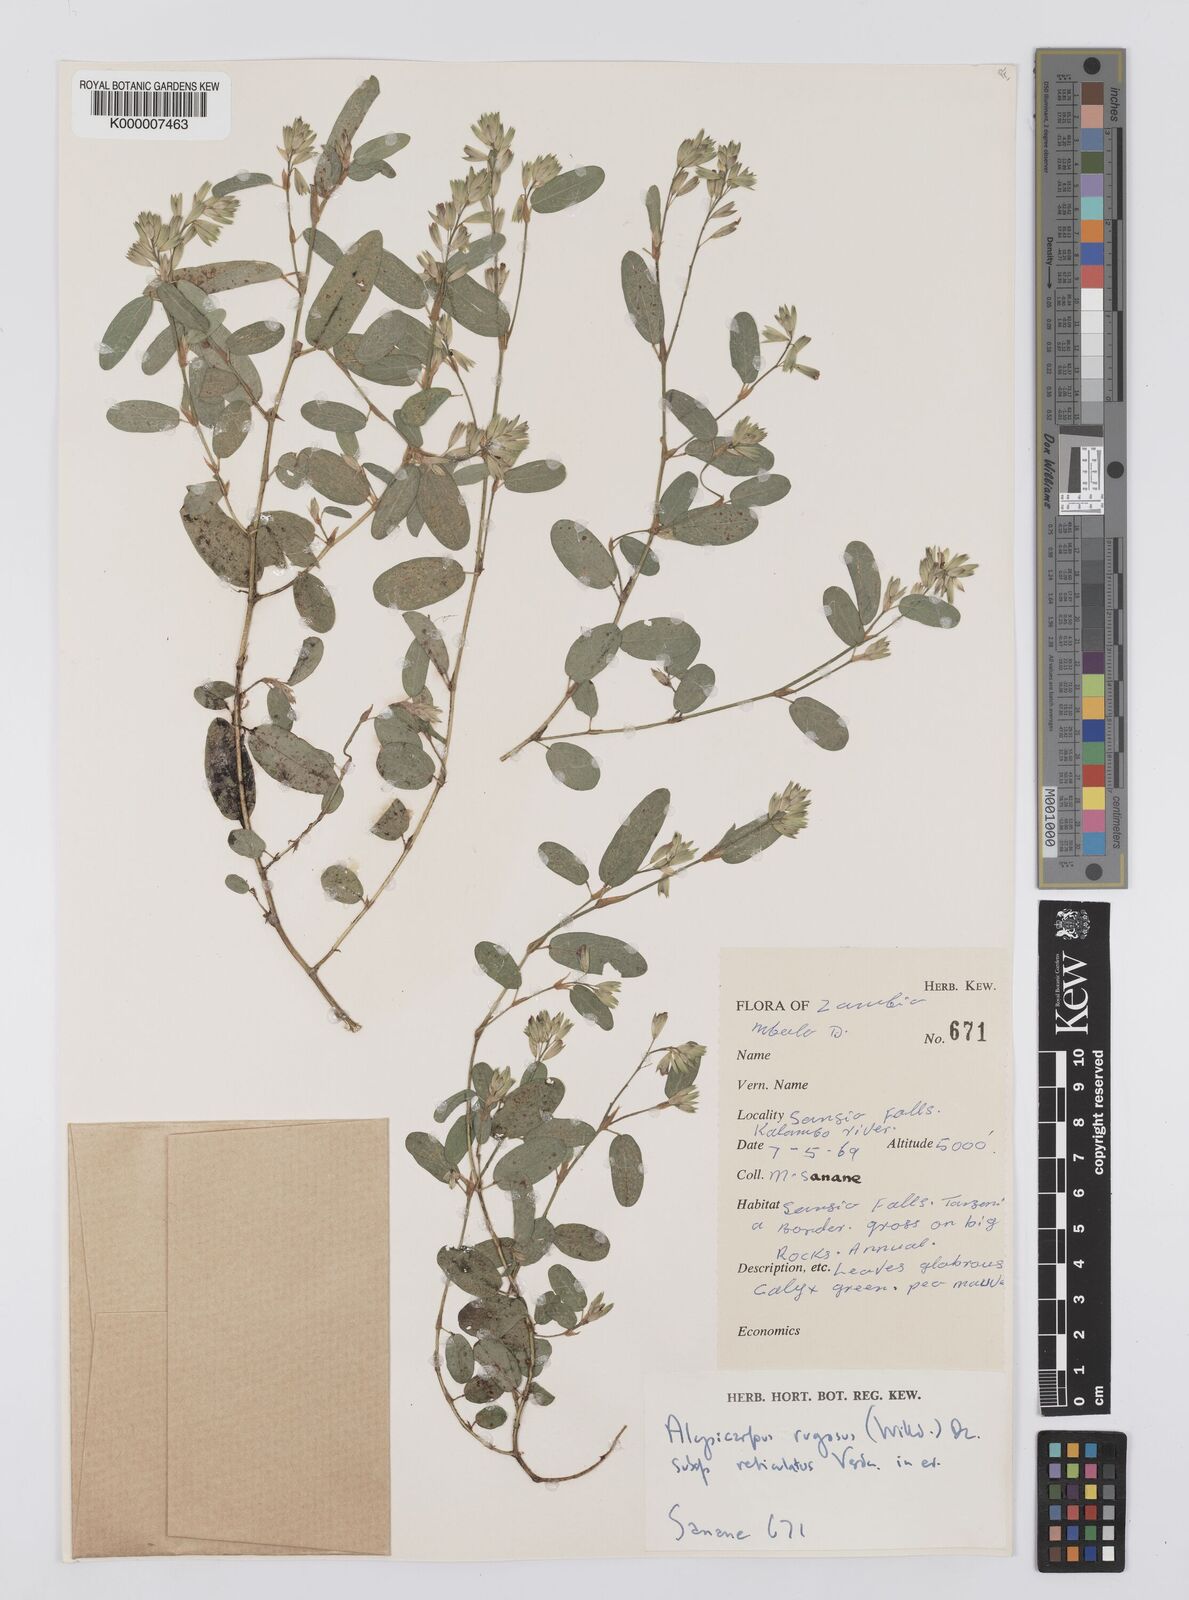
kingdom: Plantae
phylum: Tracheophyta
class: Magnoliopsida
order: Fabales
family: Fabaceae
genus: Alysicarpus
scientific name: Alysicarpus rugosus
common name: Red moneywort
